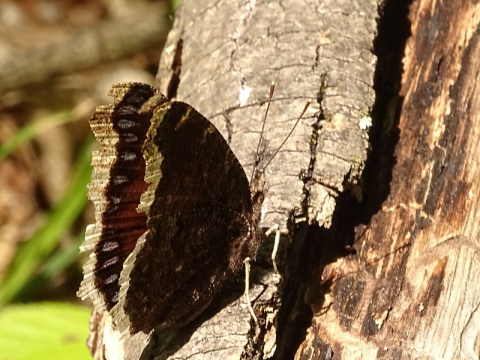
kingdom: Animalia
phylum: Arthropoda
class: Insecta
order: Lepidoptera
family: Nymphalidae
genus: Nymphalis
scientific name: Nymphalis antiopa
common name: Mourning Cloak
